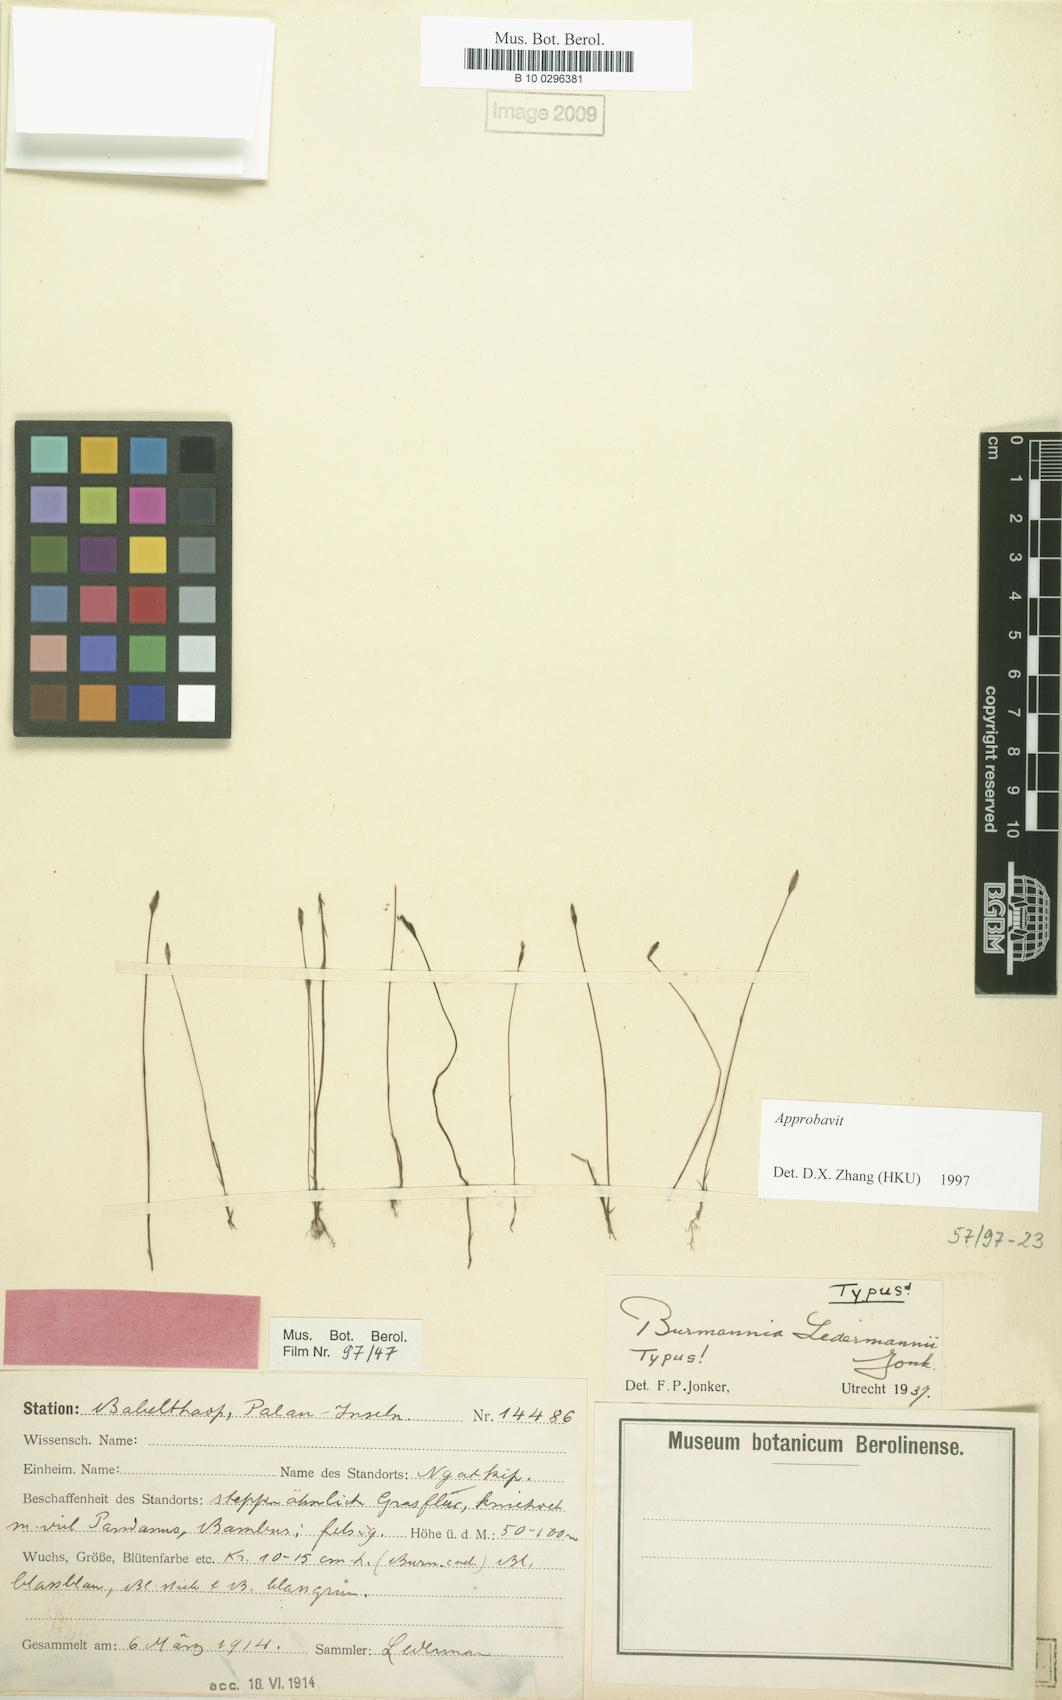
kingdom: Plantae
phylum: Tracheophyta
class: Liliopsida
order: Dioscoreales
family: Burmanniaceae
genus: Burmannia
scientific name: Burmannia ledermannii
